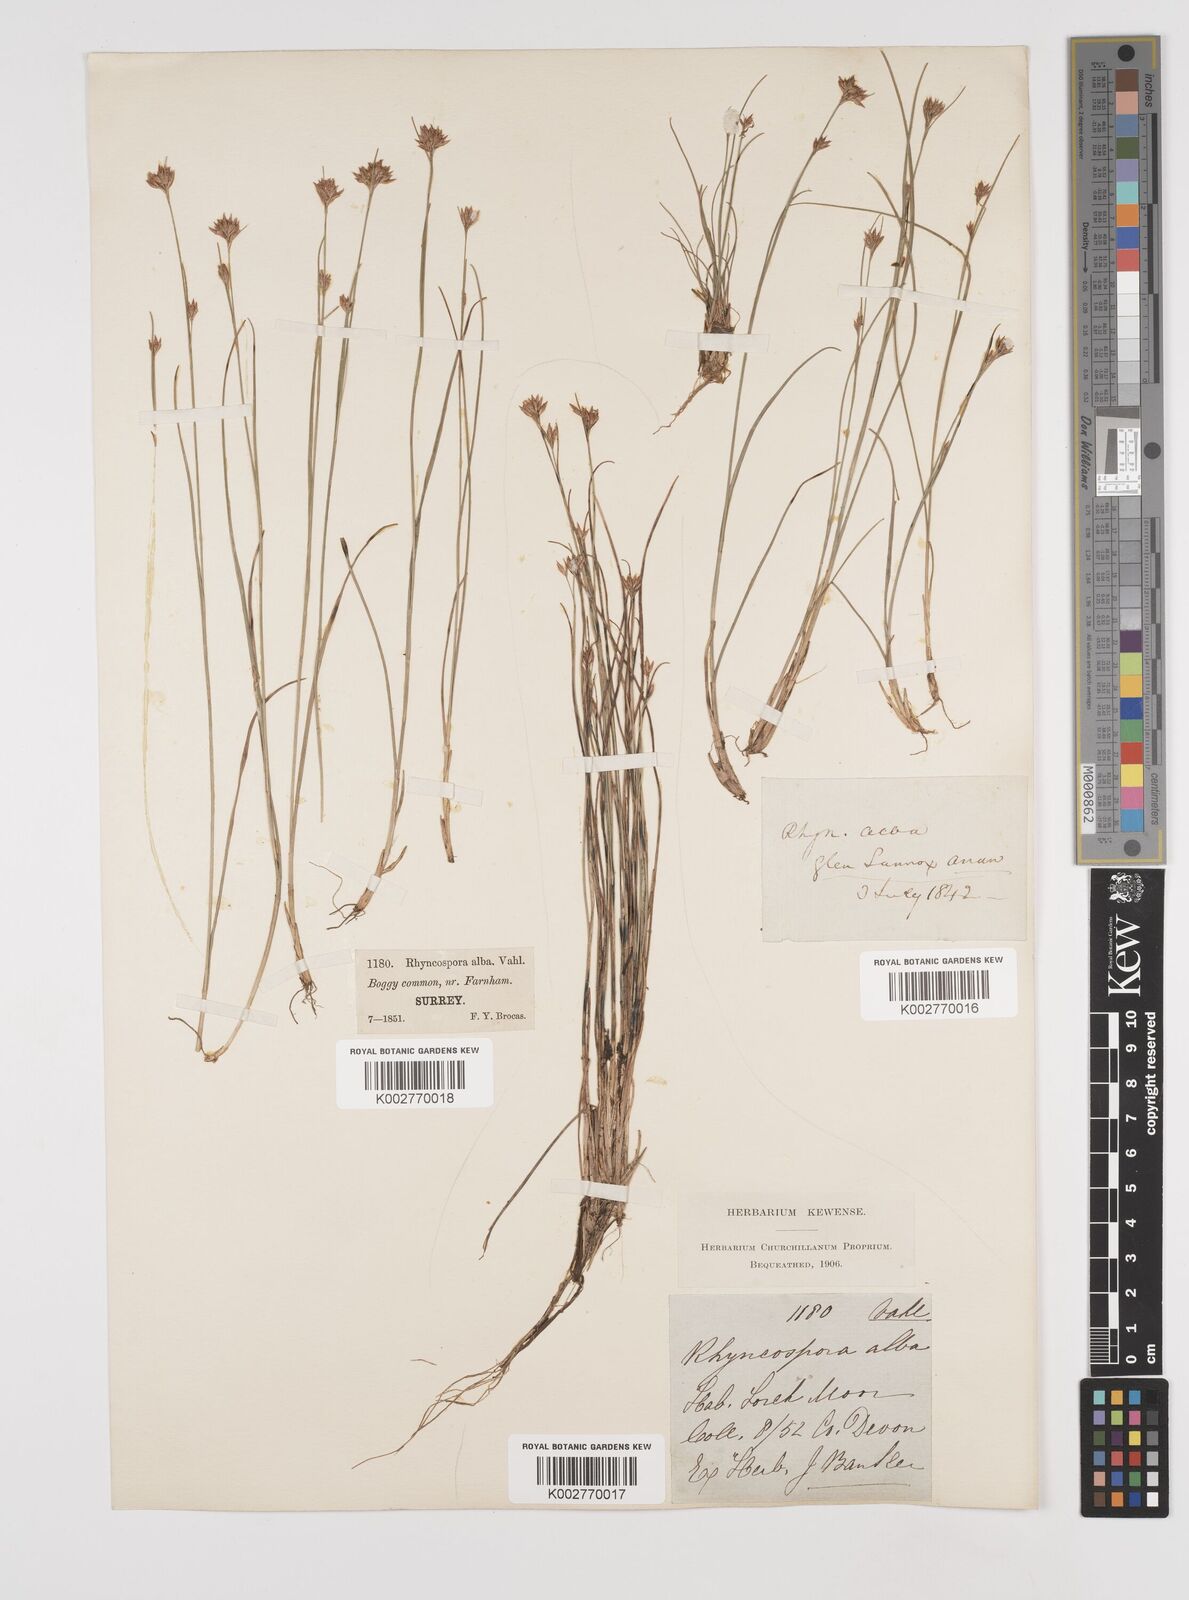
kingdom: Plantae
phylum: Tracheophyta
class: Liliopsida
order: Poales
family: Cyperaceae
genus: Rhynchospora
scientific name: Rhynchospora alba
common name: White beak-sedge
